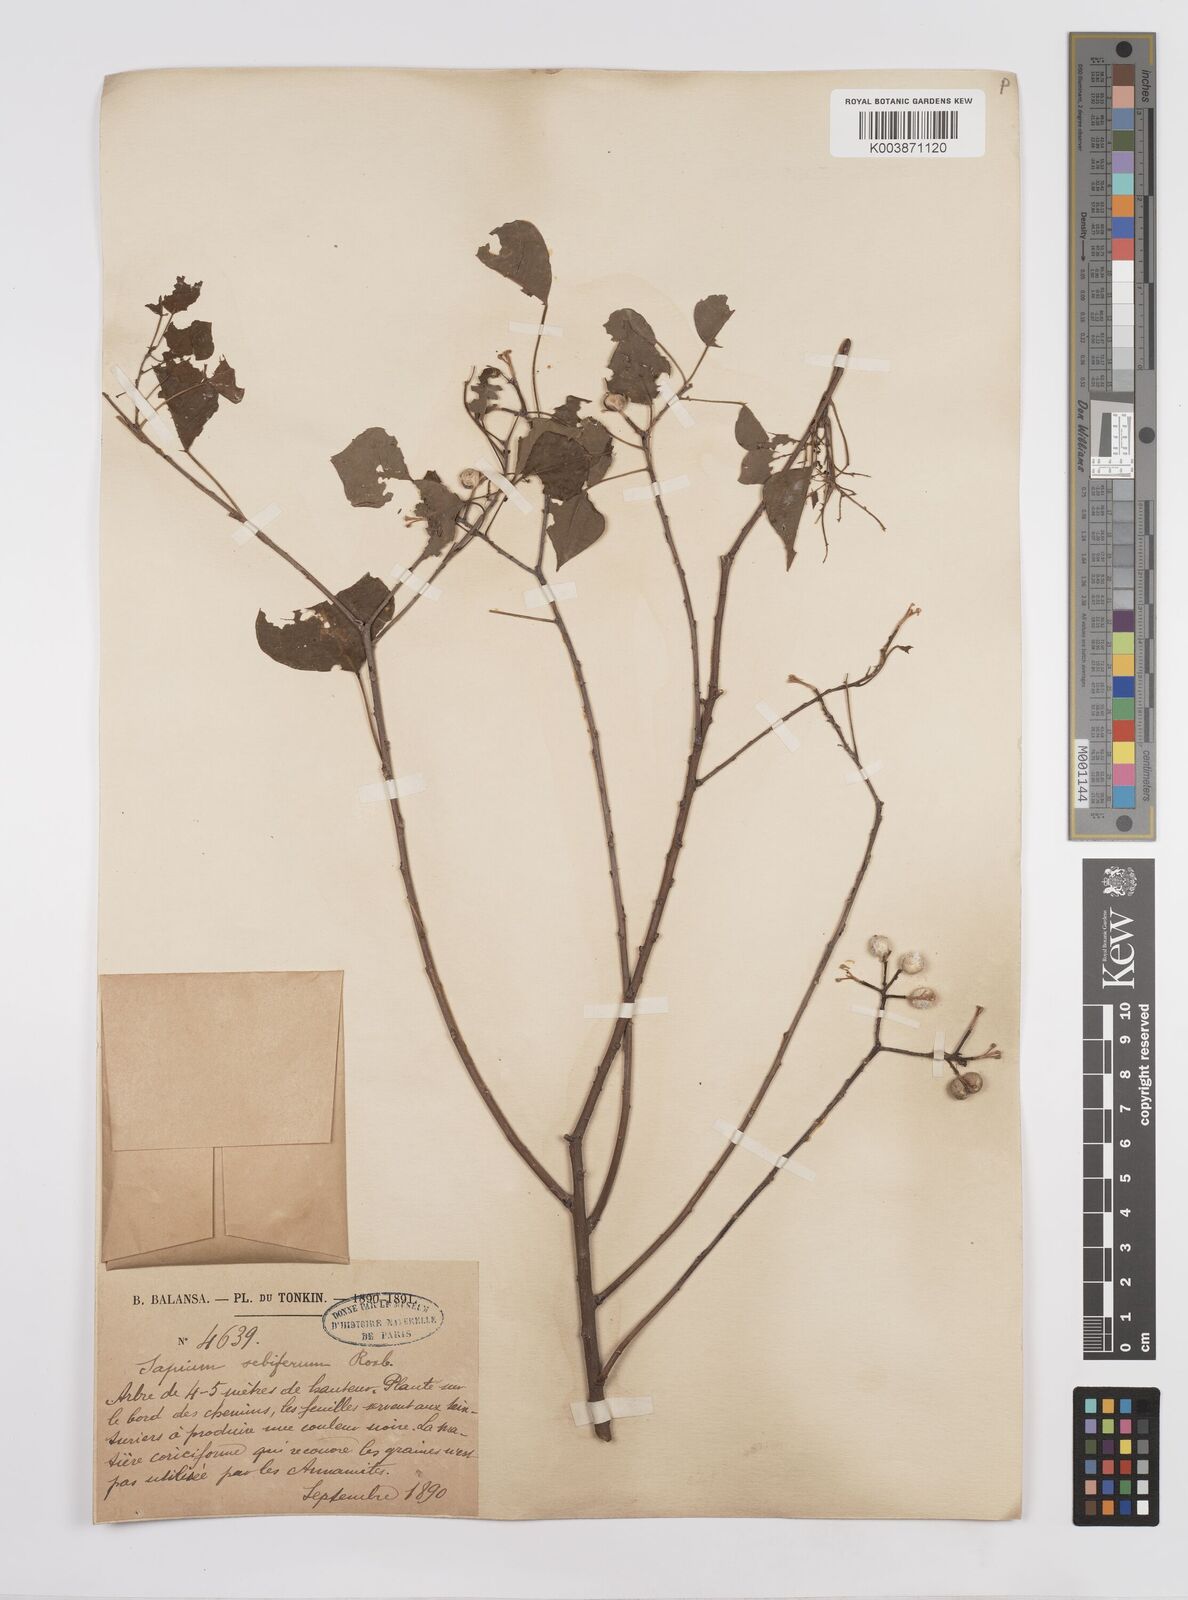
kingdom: Plantae
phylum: Tracheophyta
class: Magnoliopsida
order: Malpighiales
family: Euphorbiaceae
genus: Triadica
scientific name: Triadica sebifera
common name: Chinese tallow
